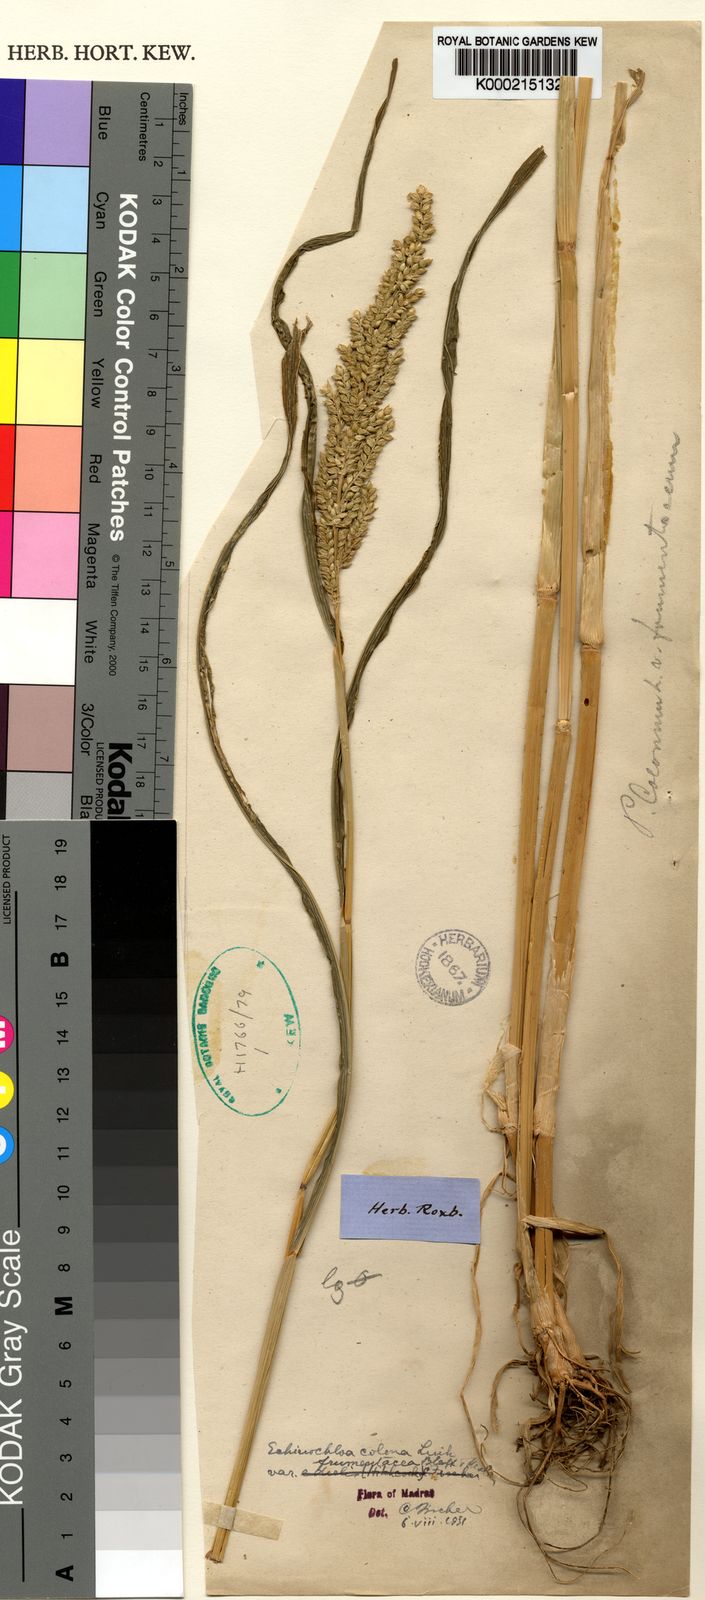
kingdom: Plantae
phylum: Tracheophyta
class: Liliopsida
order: Poales
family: Poaceae
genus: Echinochloa
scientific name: Echinochloa frumentacea
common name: Billion-dollar grass
